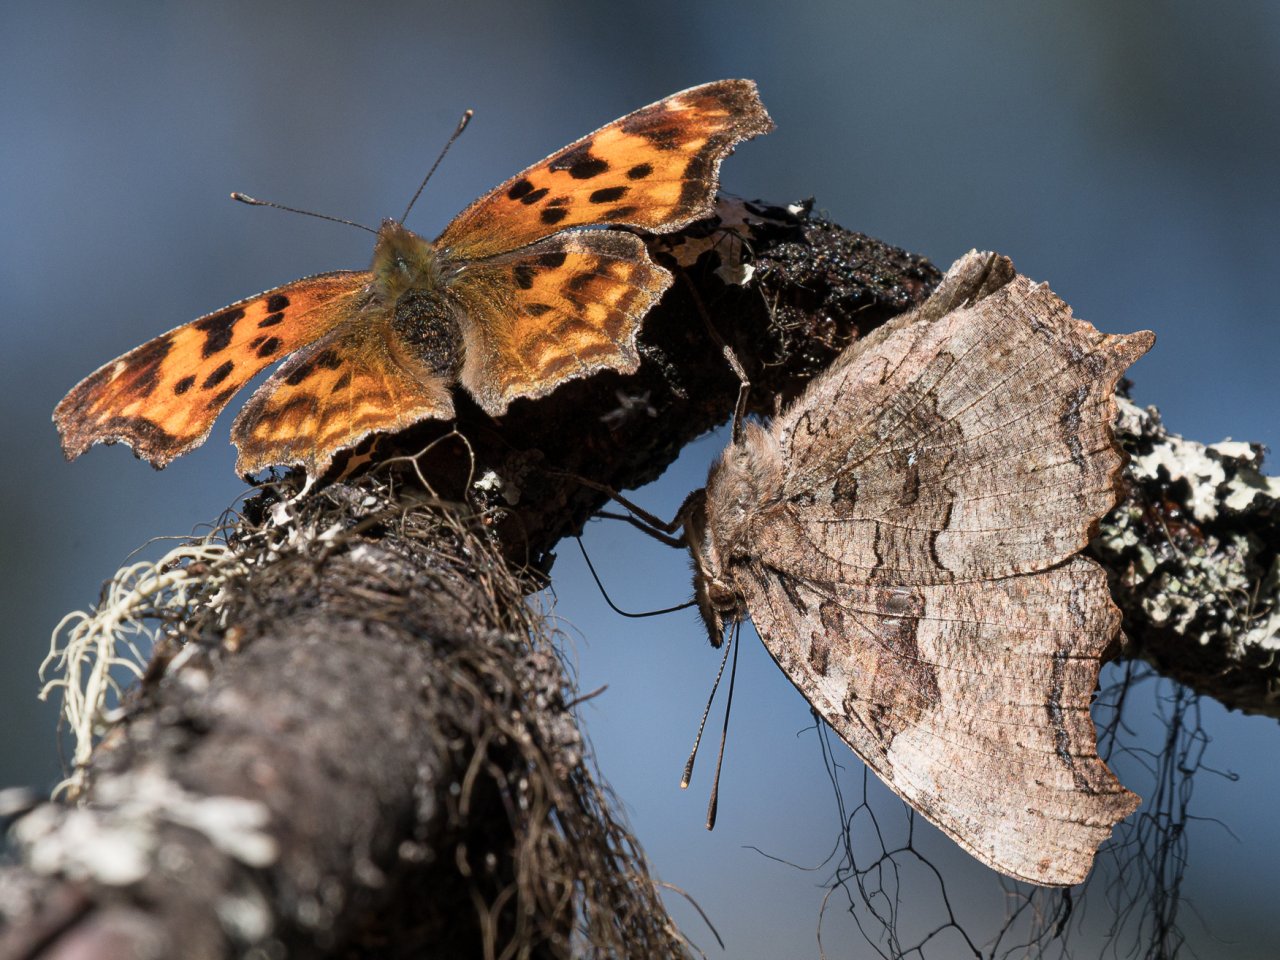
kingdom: Animalia
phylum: Arthropoda
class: Insecta
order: Lepidoptera
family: Nymphalidae
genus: Polygonia
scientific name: Polygonia vaualbum
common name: Compton Tortoiseshell
